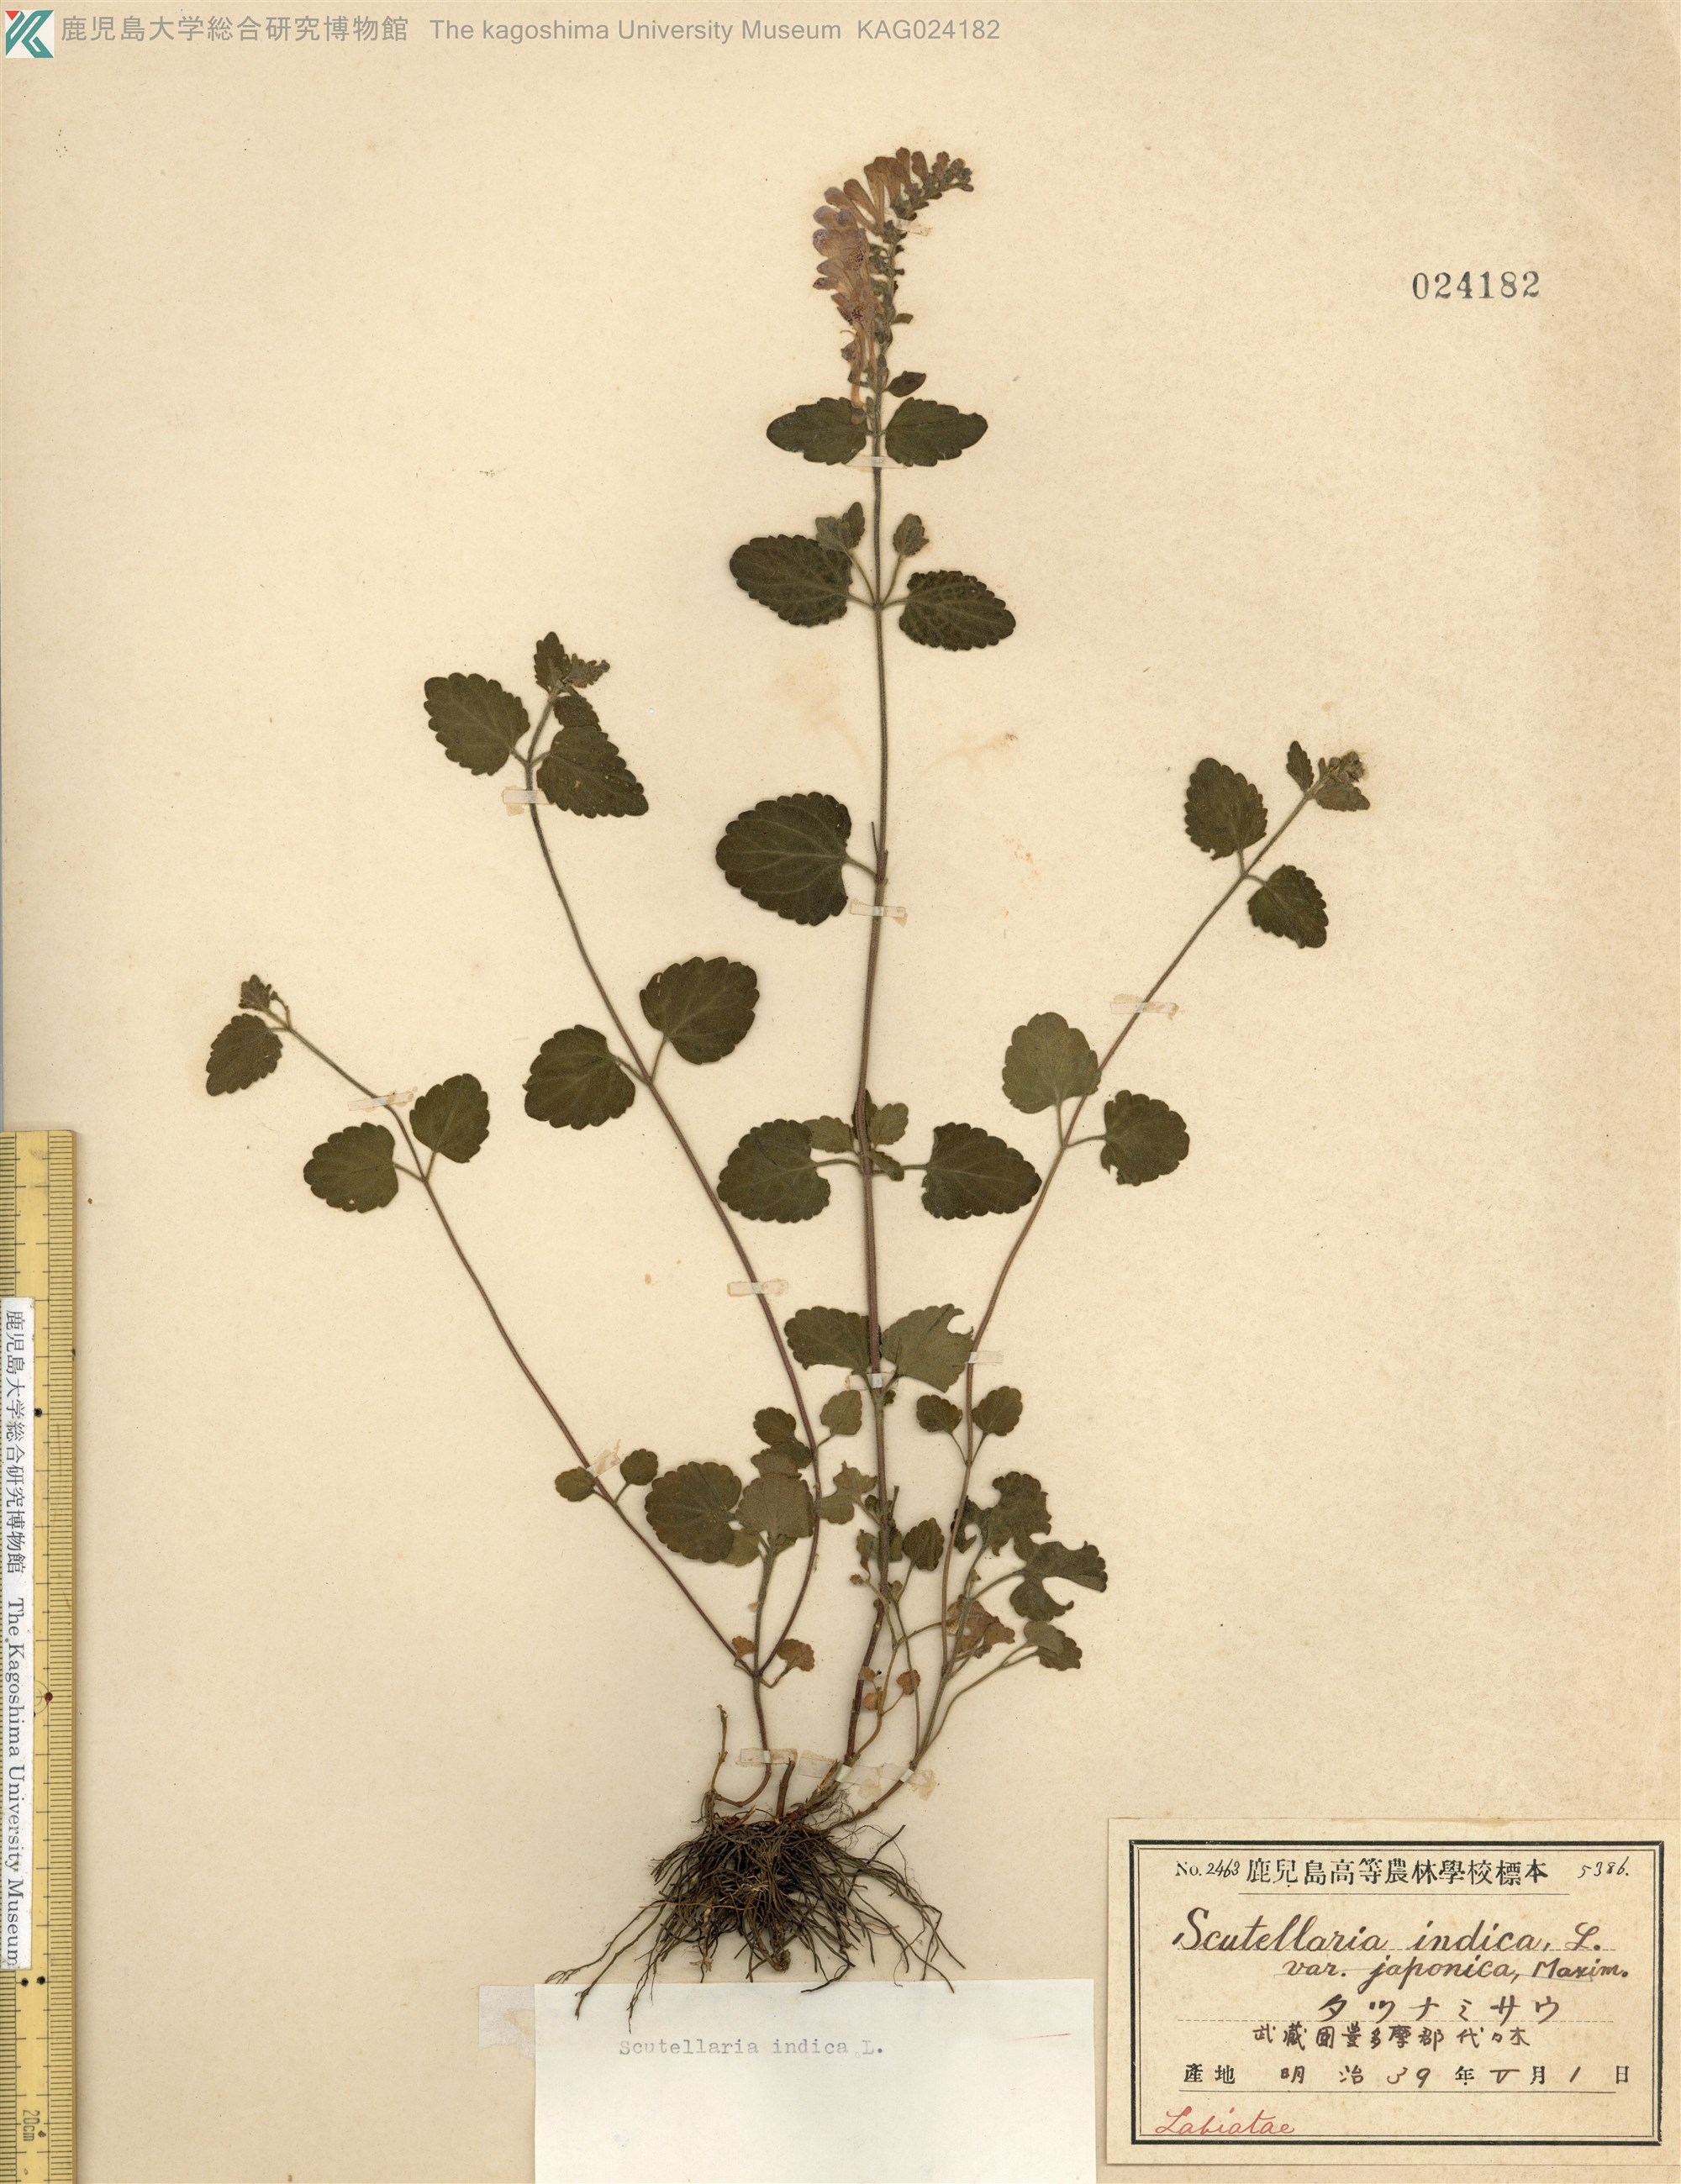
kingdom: Plantae
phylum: Tracheophyta
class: Magnoliopsida
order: Lamiales
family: Lamiaceae
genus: Scutellaria
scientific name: Scutellaria indica
